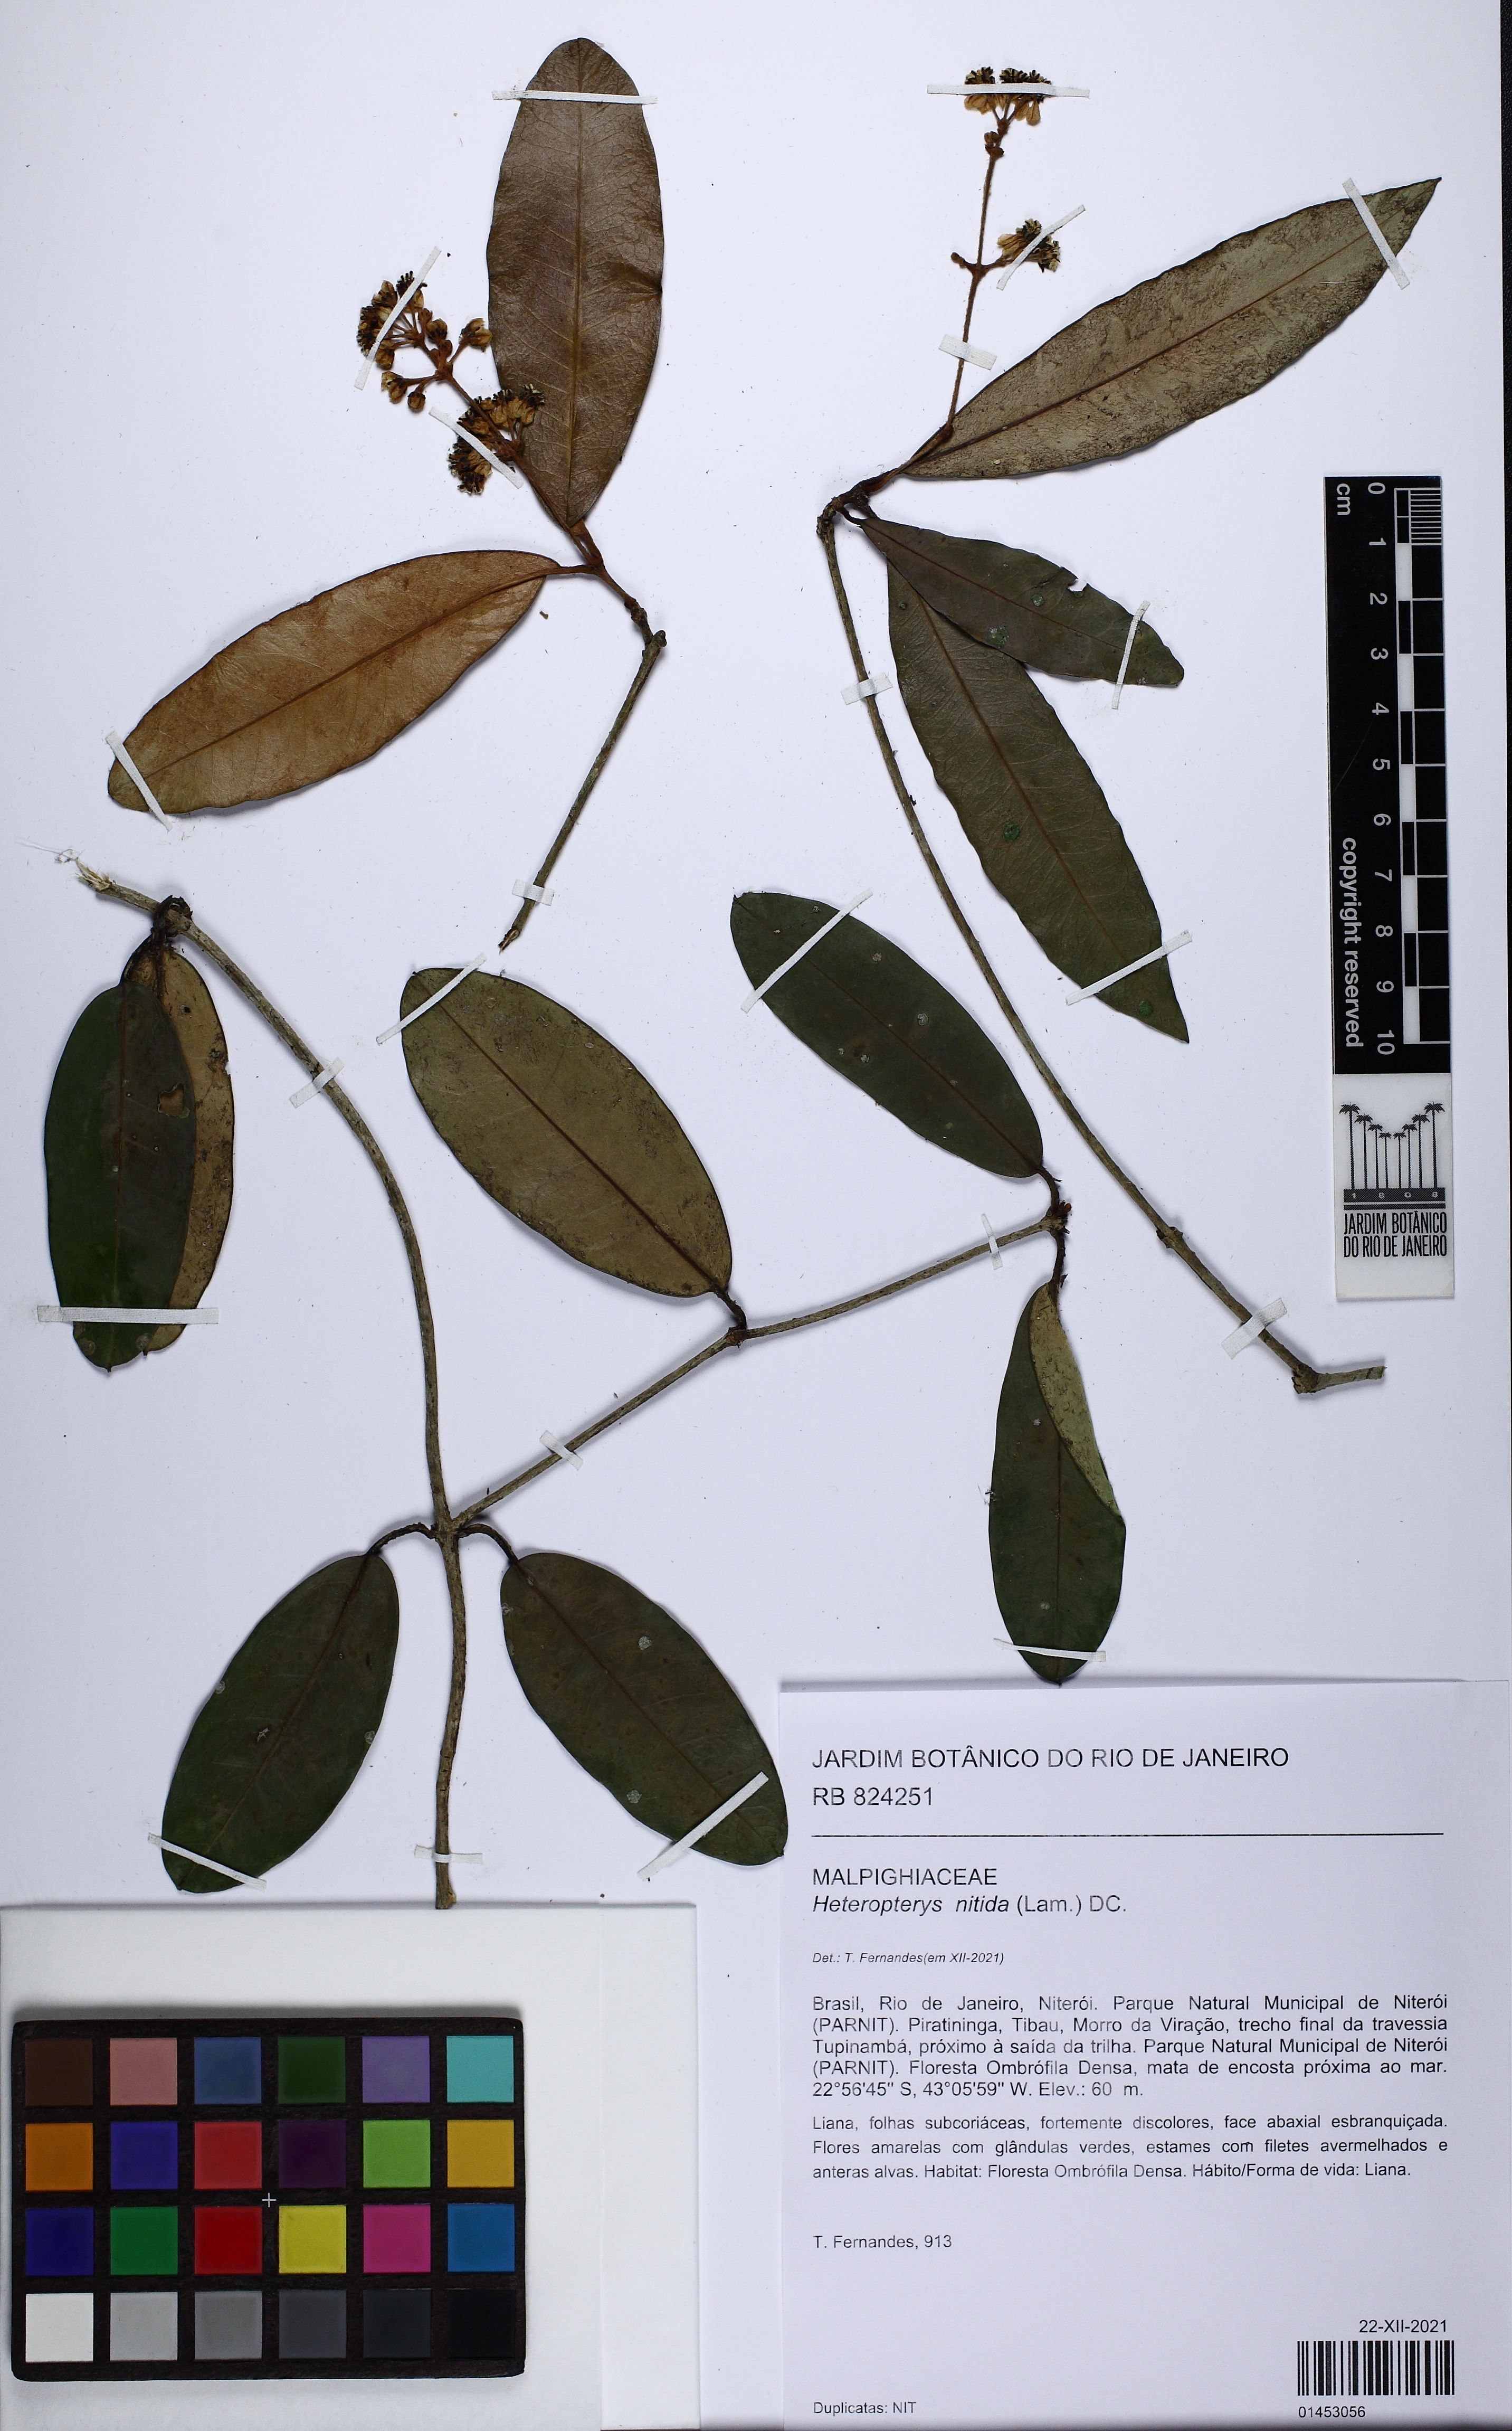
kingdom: Plantae
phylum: Tracheophyta
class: Magnoliopsida
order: Malpighiales
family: Malpighiaceae
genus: Heteropterys
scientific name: Heteropterys nitida
